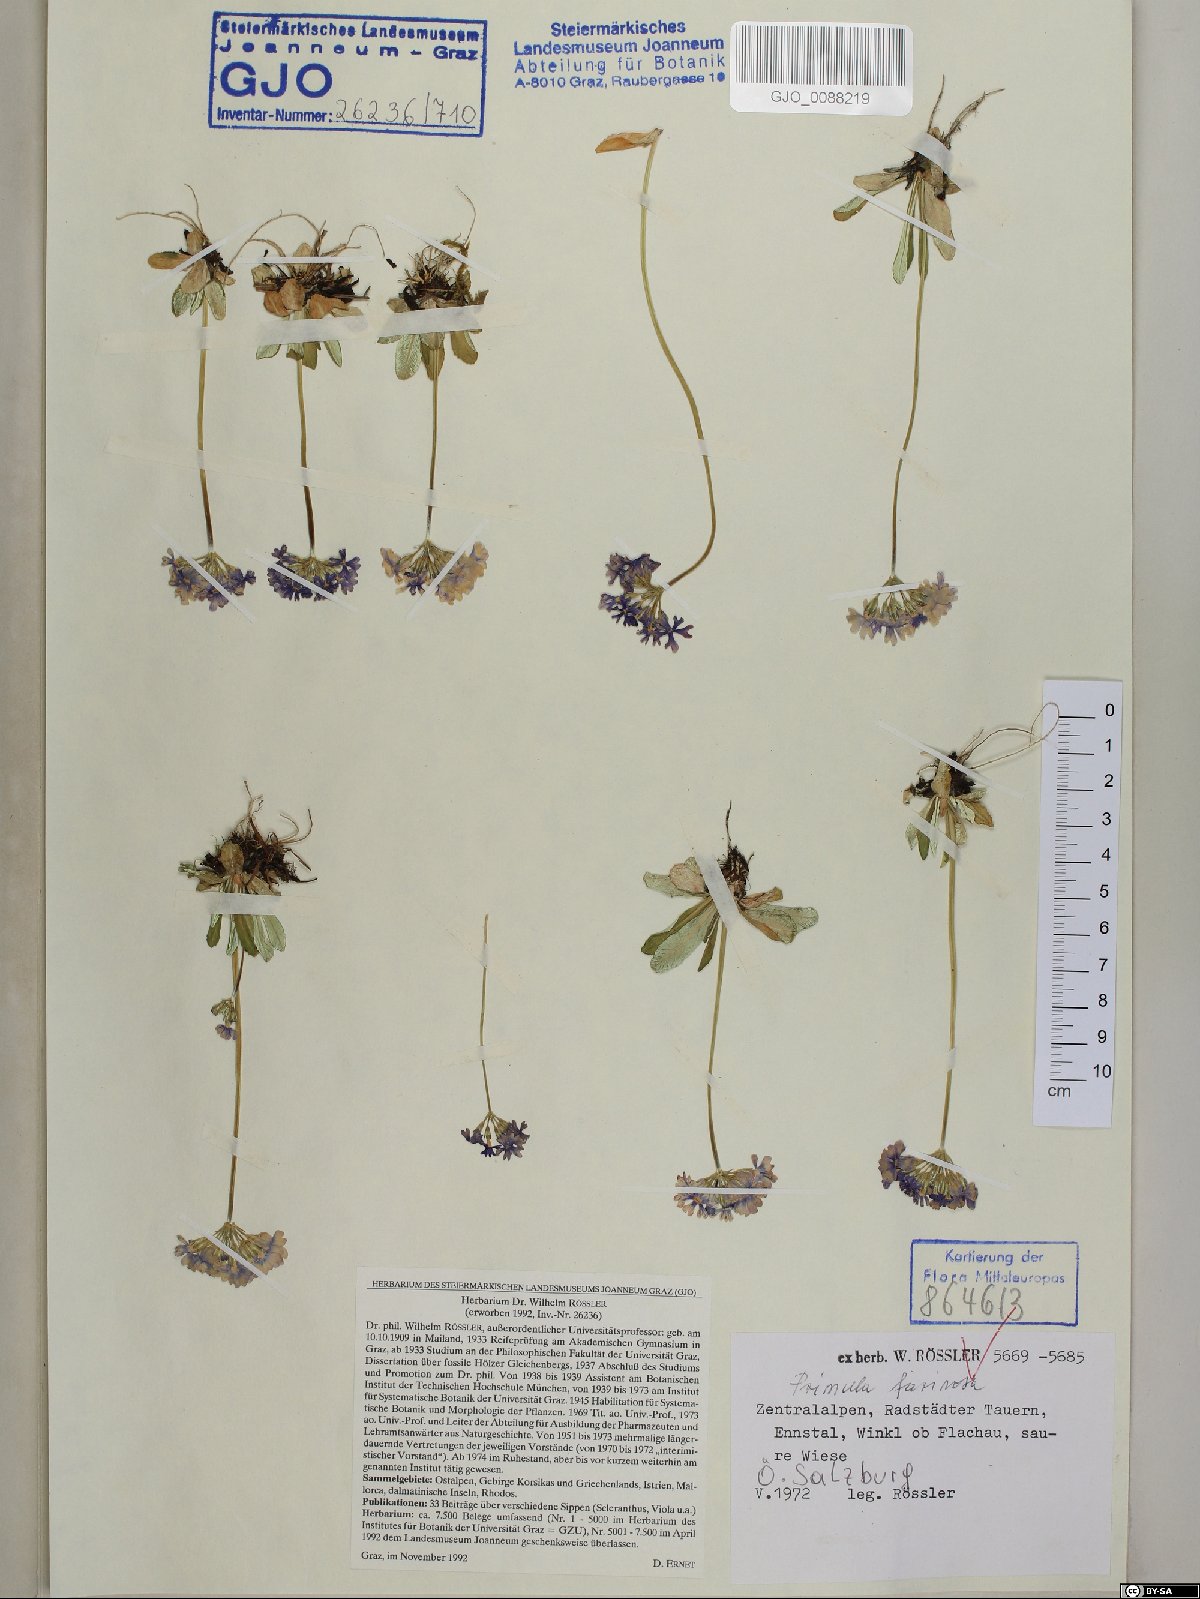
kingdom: Plantae
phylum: Tracheophyta
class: Magnoliopsida
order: Ericales
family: Primulaceae
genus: Primula
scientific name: Primula farinosa
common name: Bird's-eye primrose
